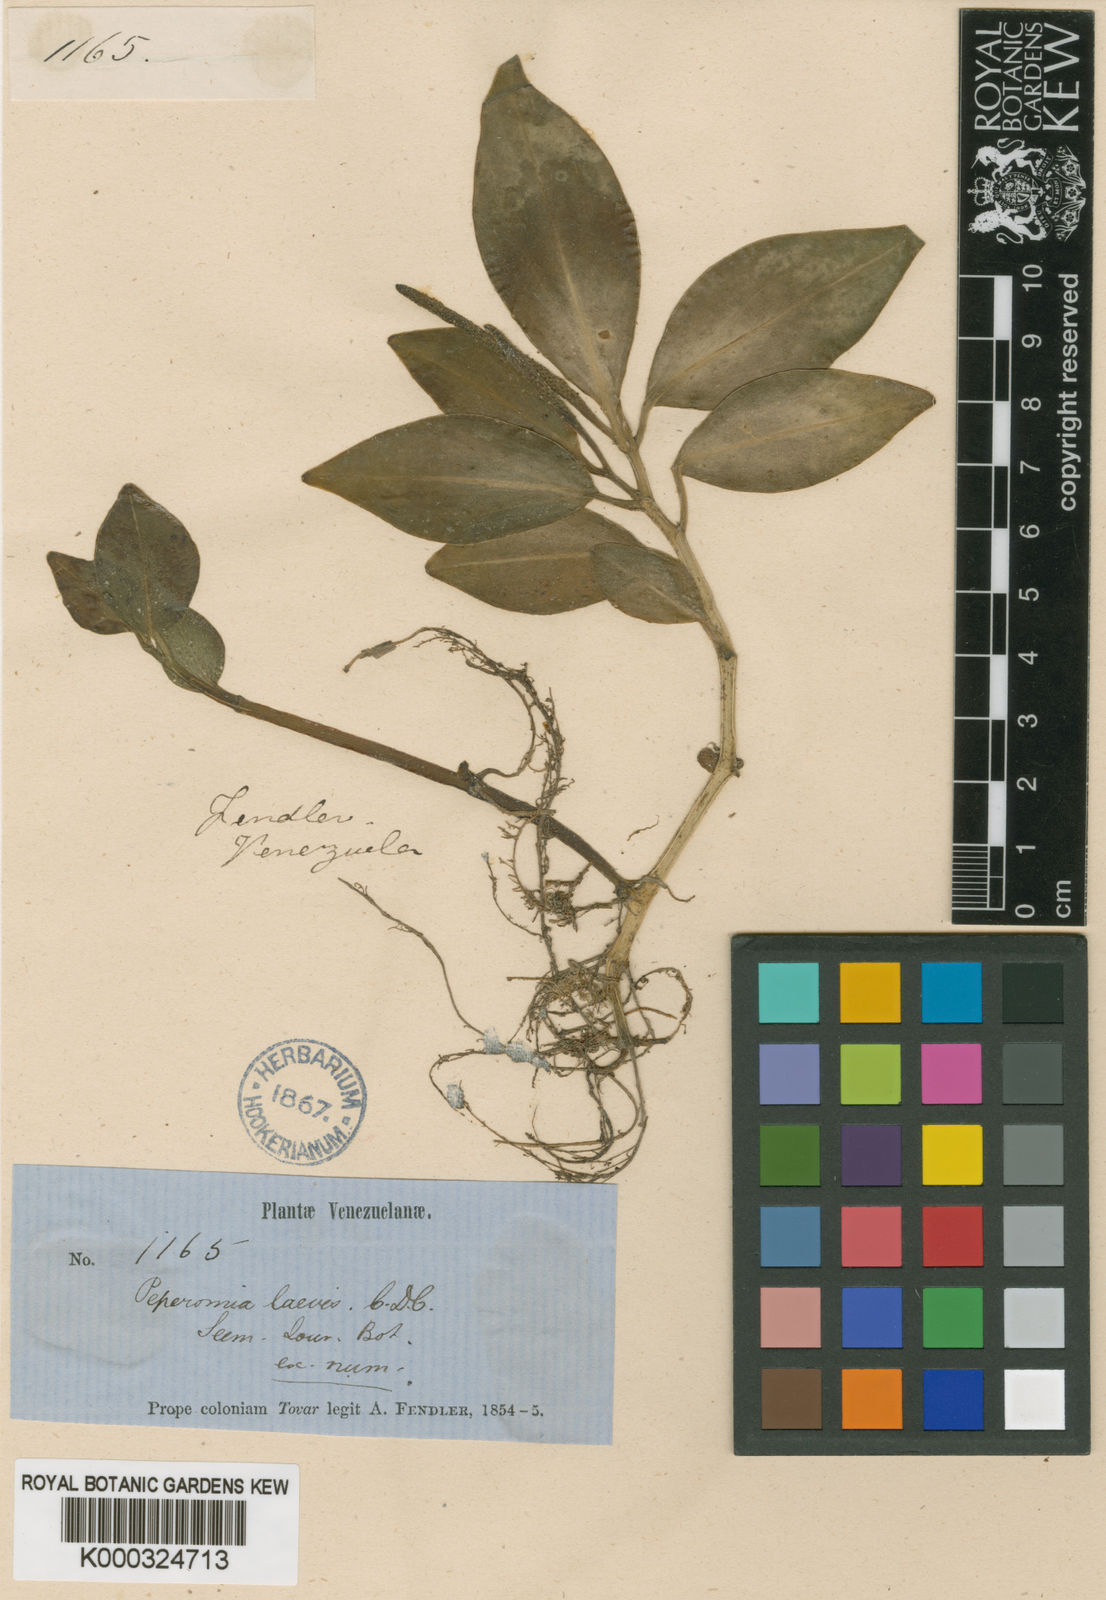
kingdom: Plantae
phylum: Tracheophyta
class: Magnoliopsida
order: Piperales
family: Piperaceae
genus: Peperomia
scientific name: Peperomia
